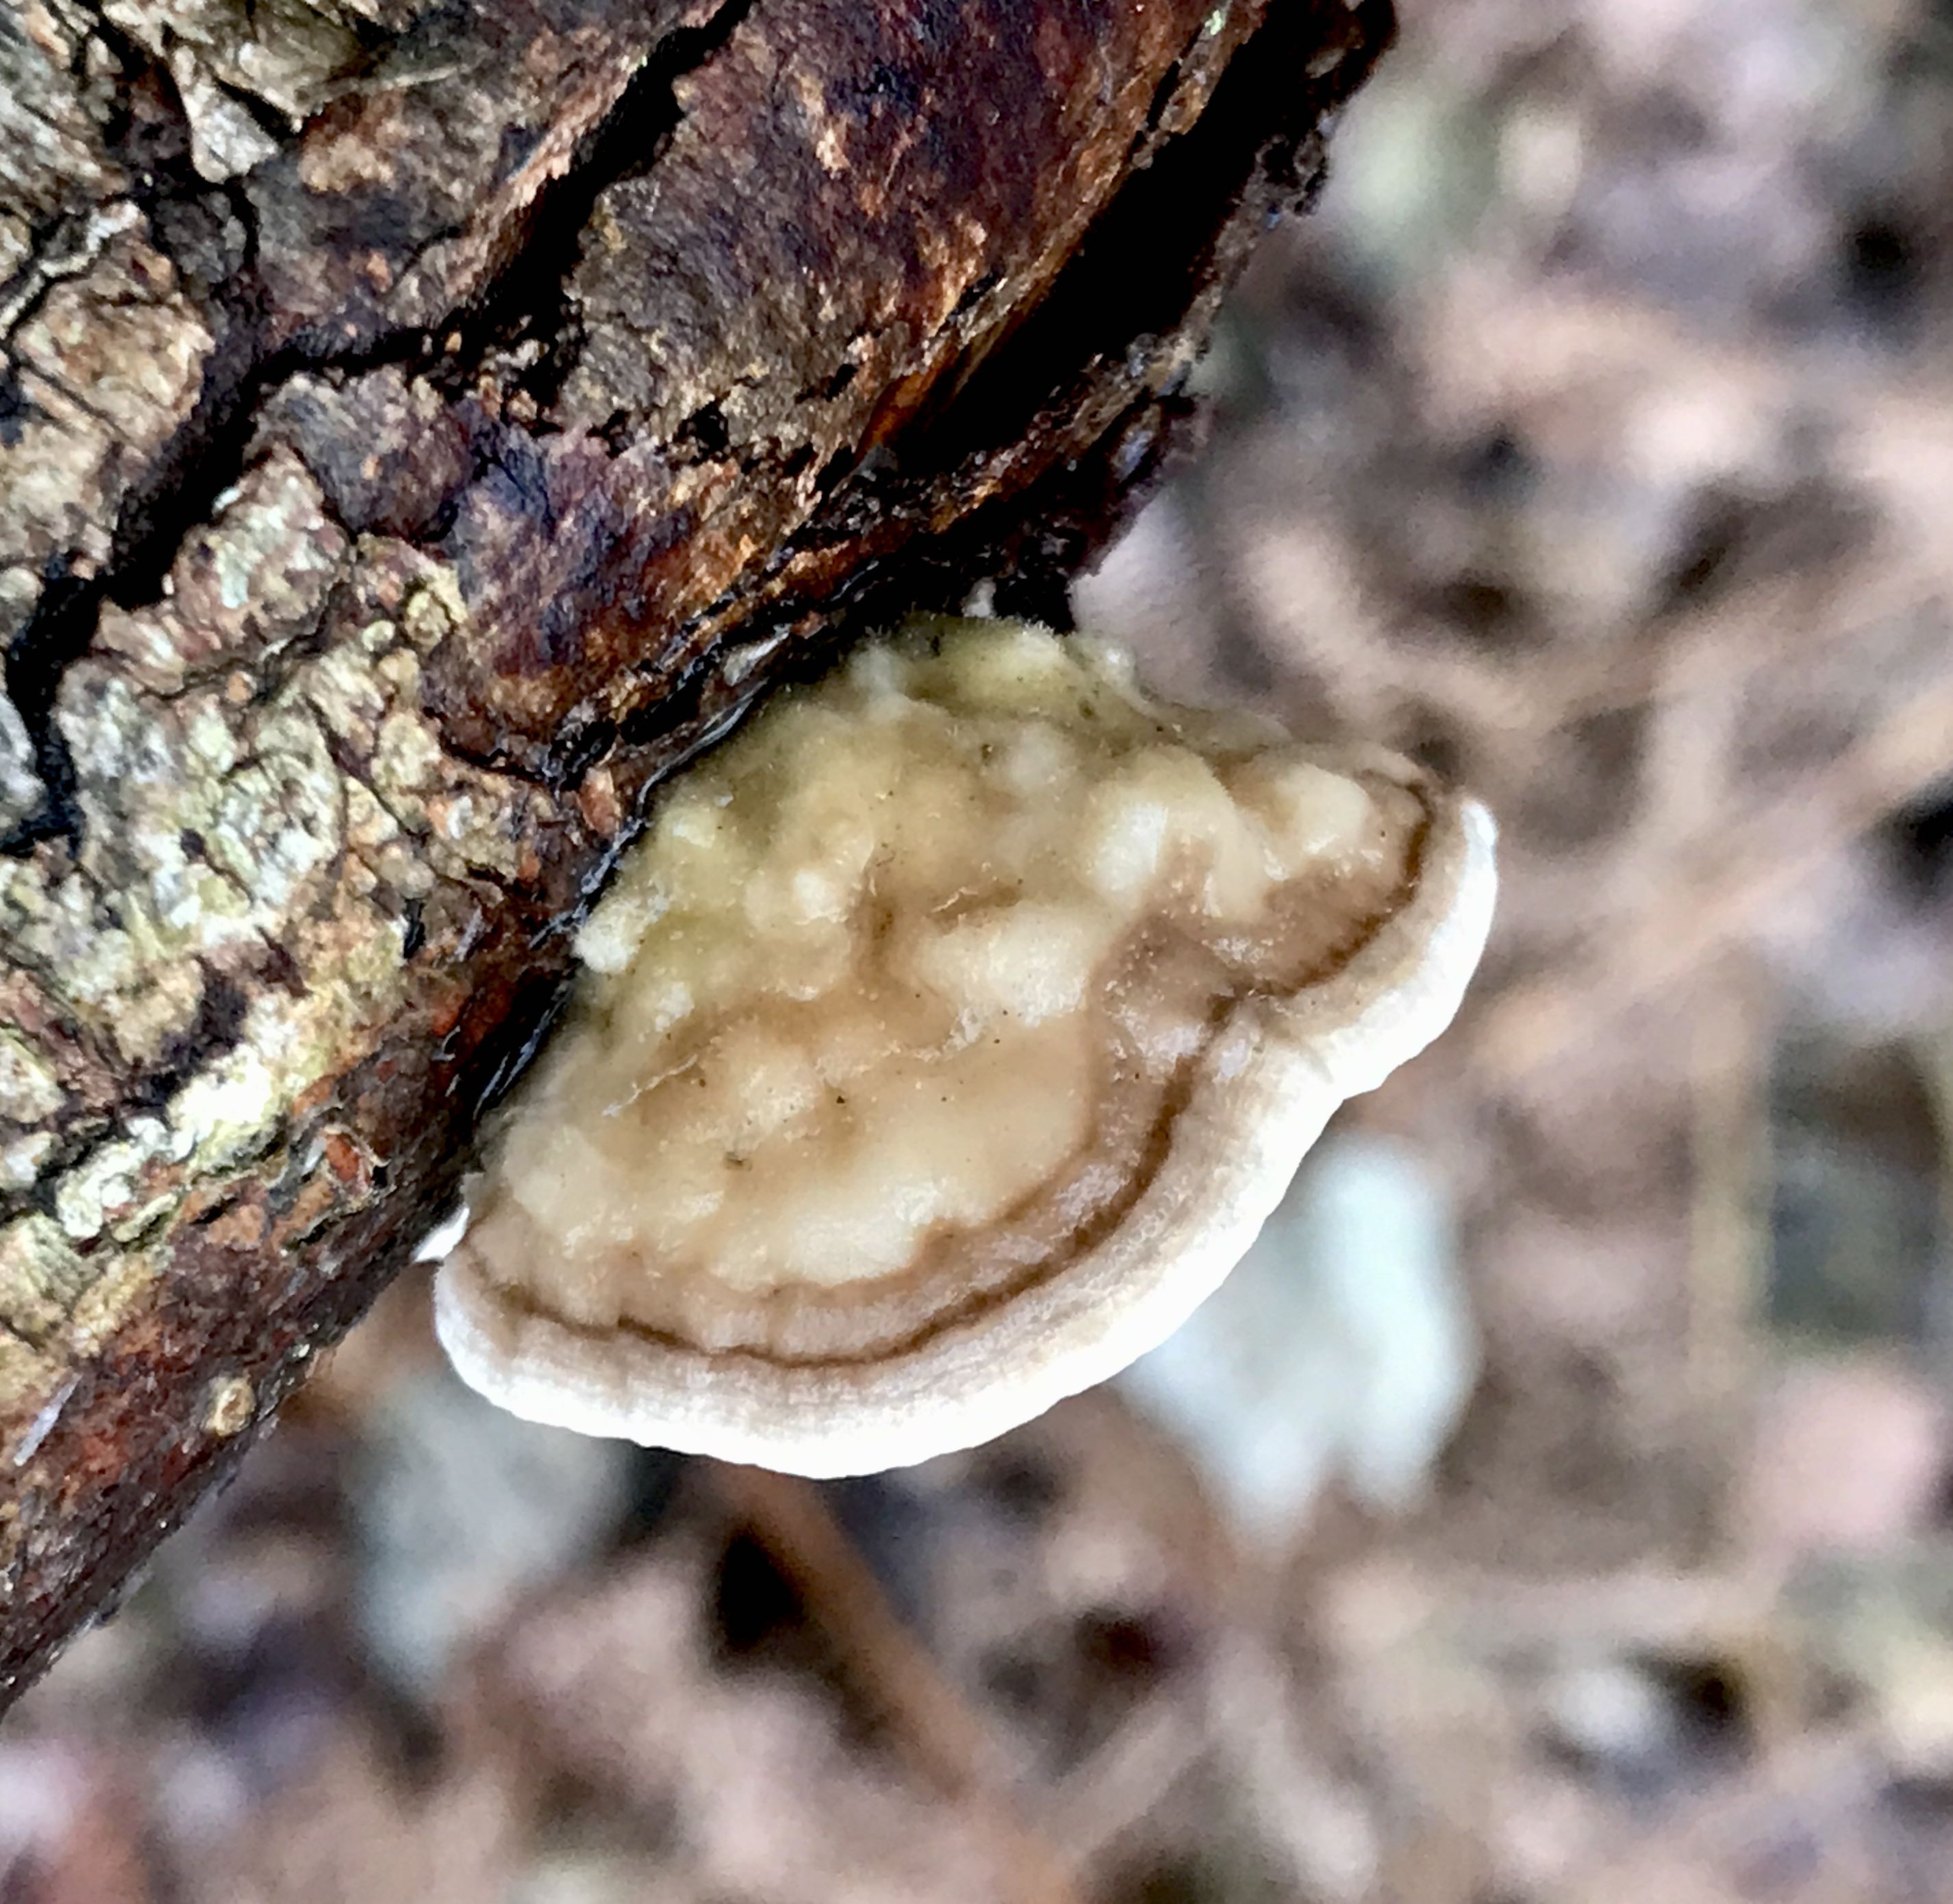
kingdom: Fungi
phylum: Basidiomycota
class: Agaricomycetes
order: Polyporales
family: Polyporaceae
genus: Lenzites
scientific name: Lenzites betulinus
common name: birke-læderporesvamp
